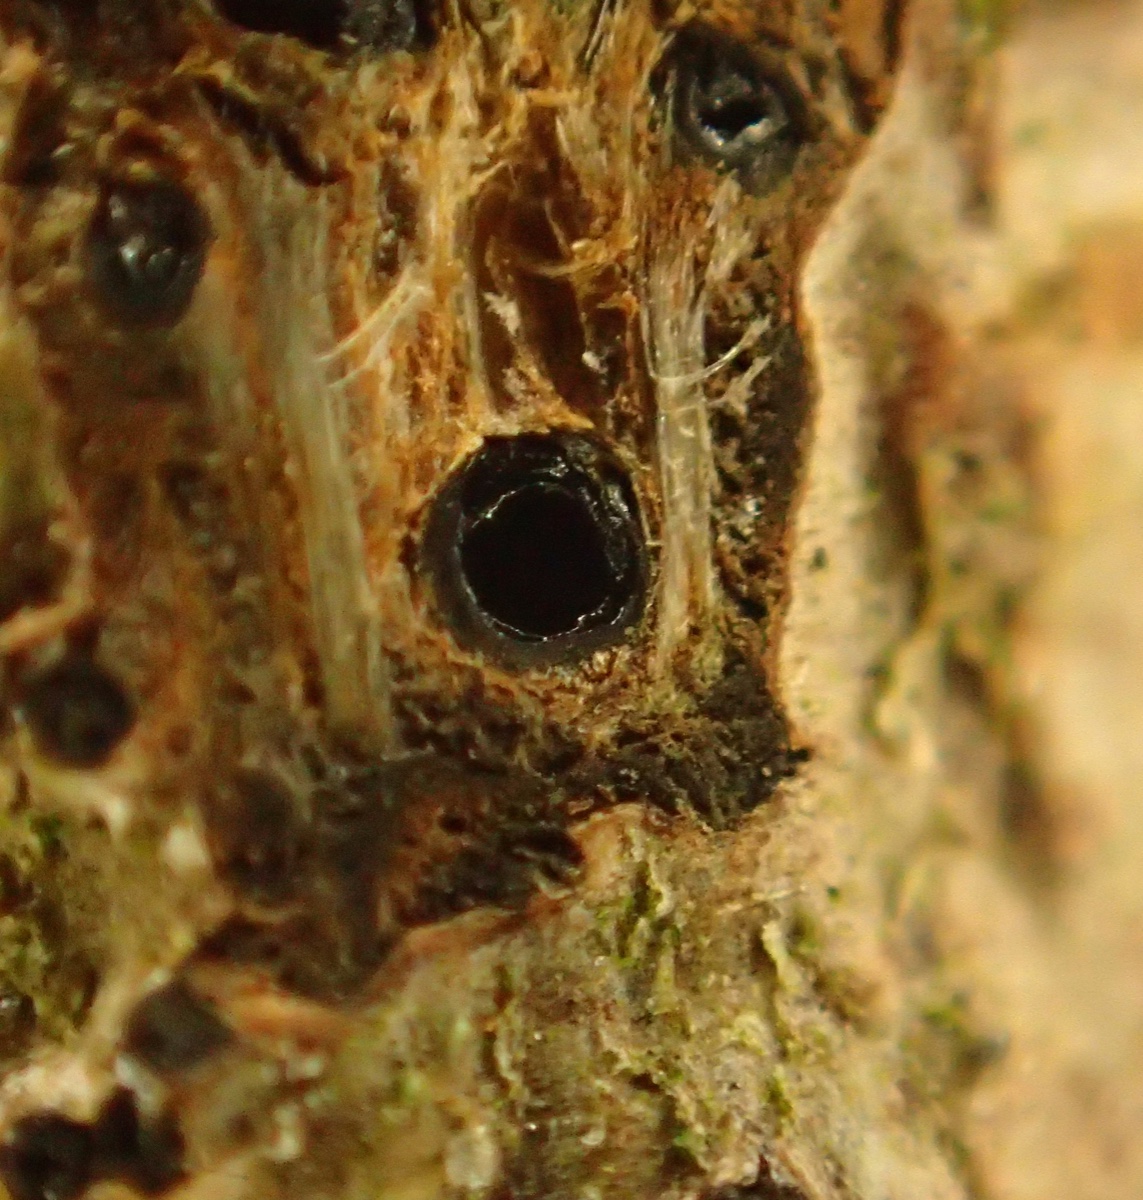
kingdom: Fungi
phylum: Ascomycota
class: Sordariomycetes
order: Xylariales
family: Diatrypaceae
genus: Quaternaria
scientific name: Quaternaria dissepta
